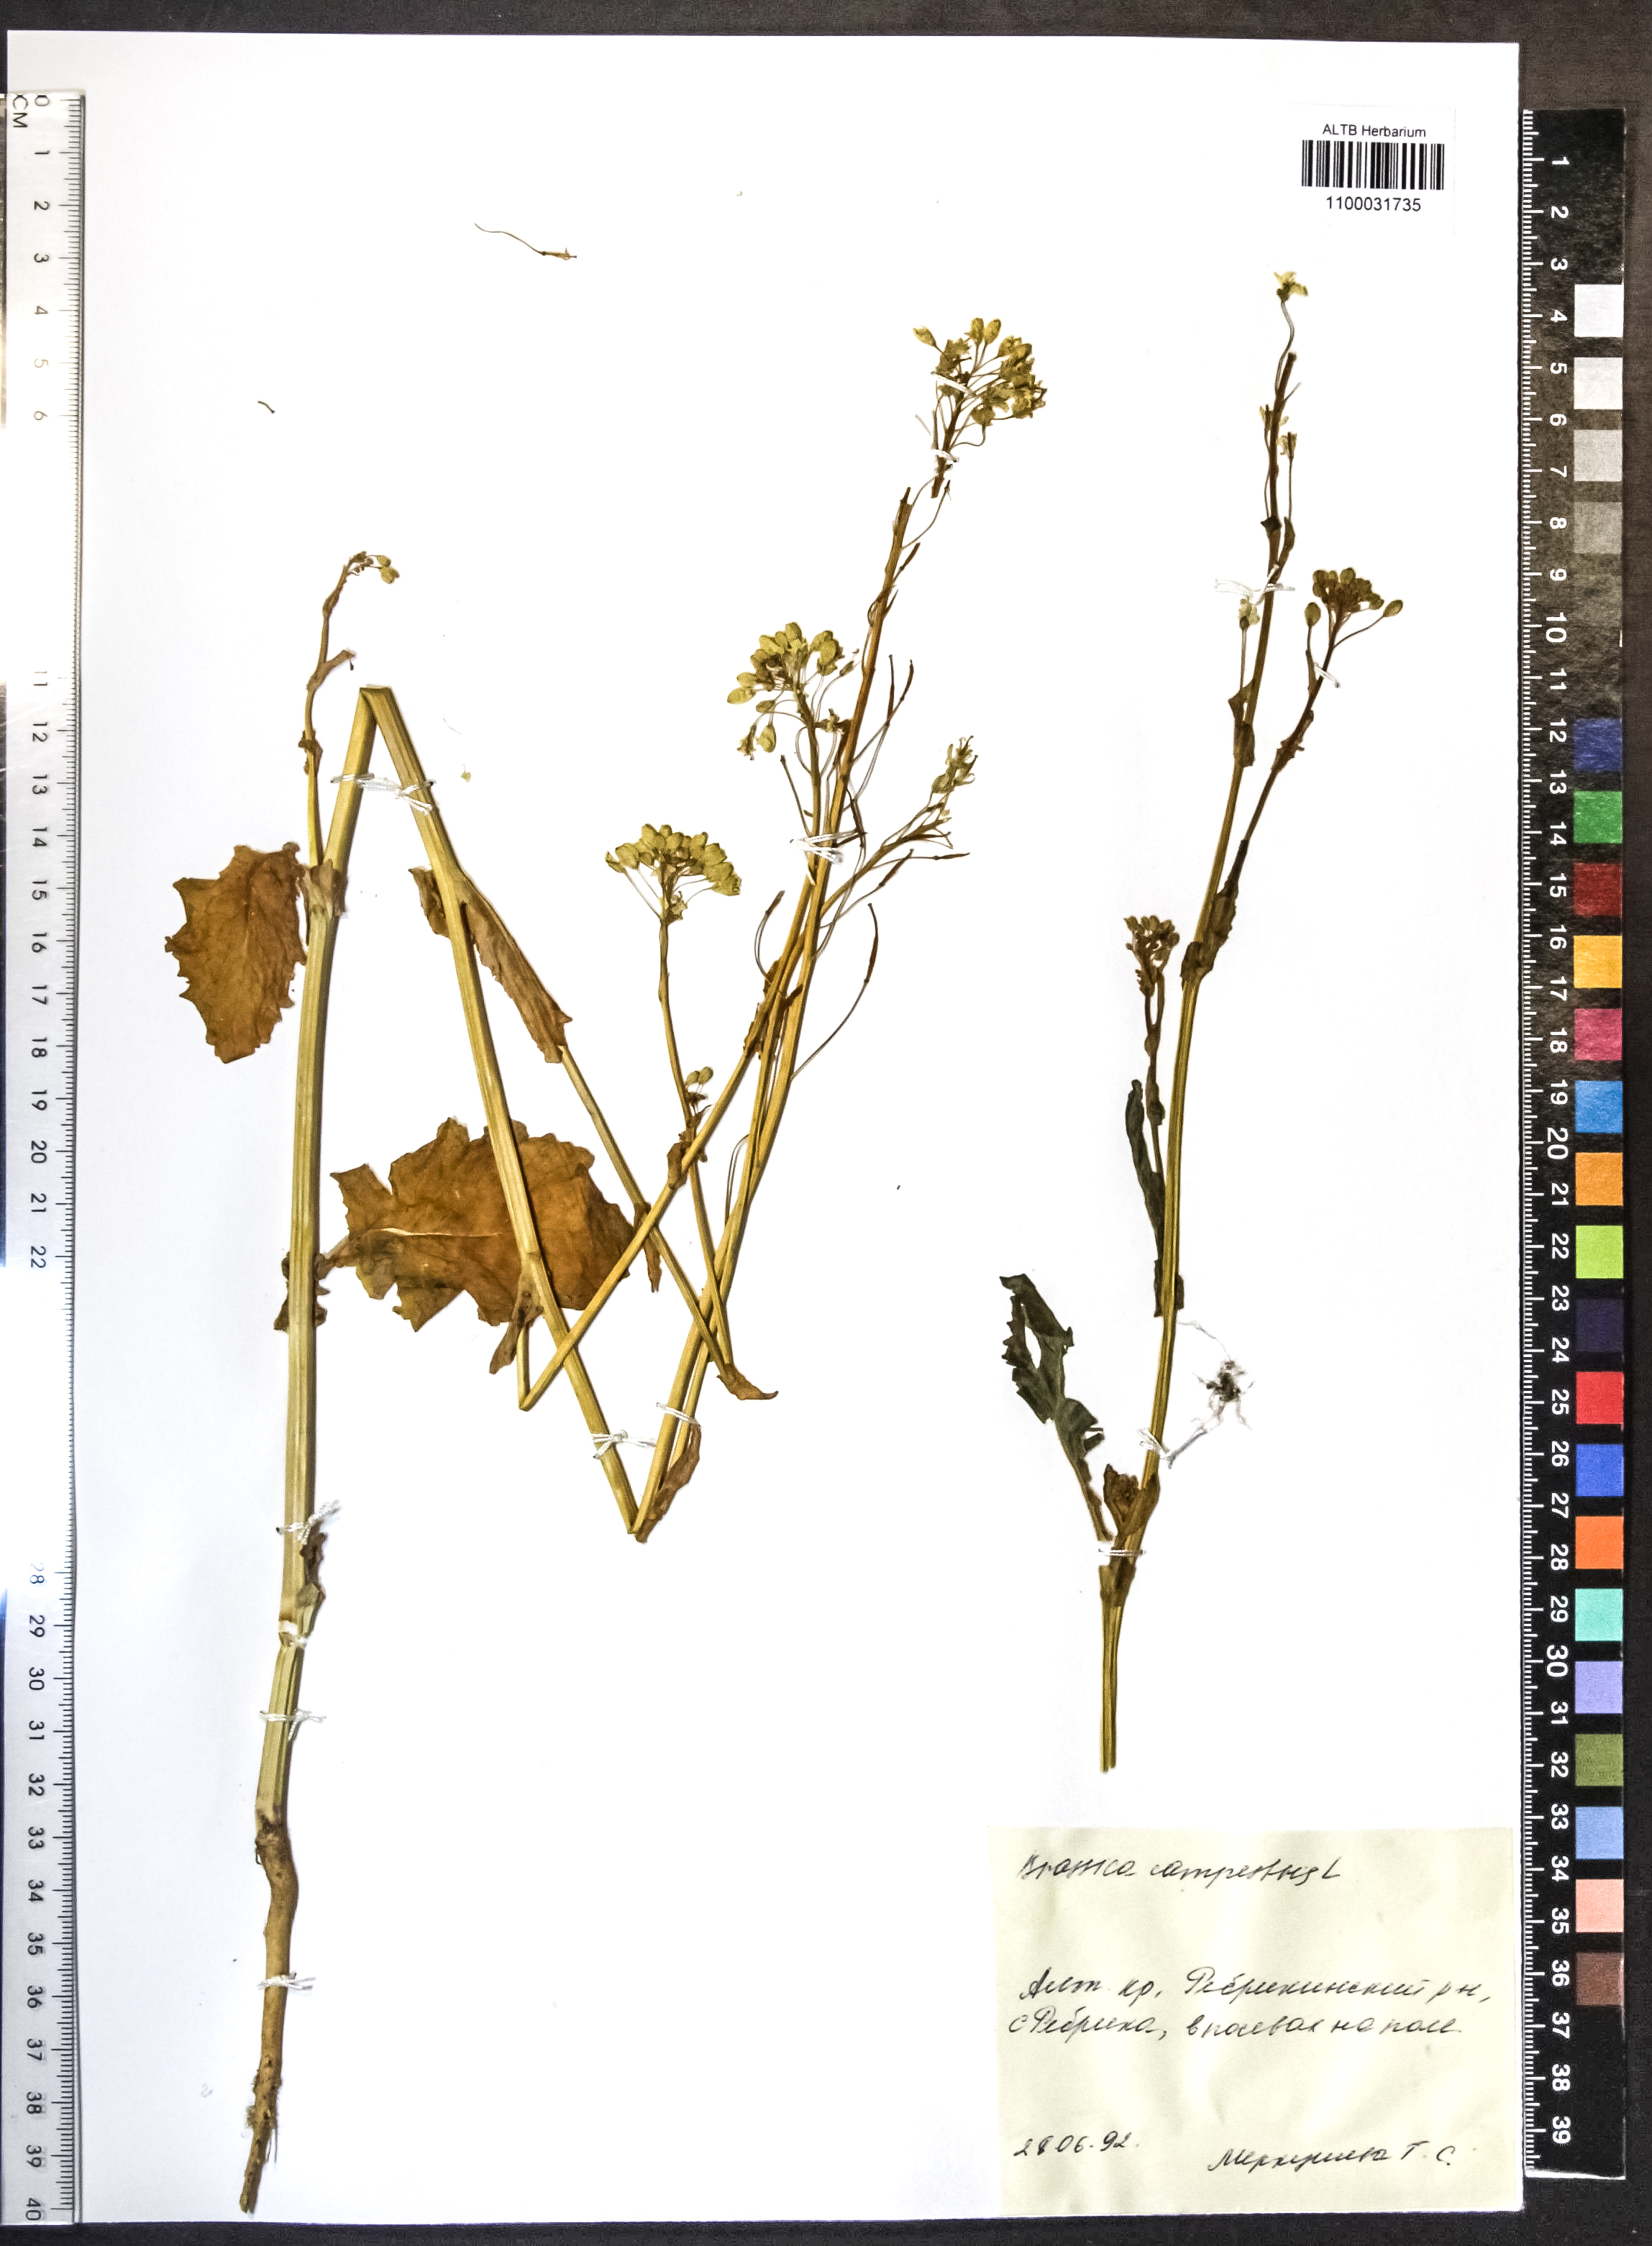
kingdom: Plantae
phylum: Tracheophyta
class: Magnoliopsida
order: Brassicales
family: Brassicaceae
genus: Brassica
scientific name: Brassica rapa
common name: Field mustard
